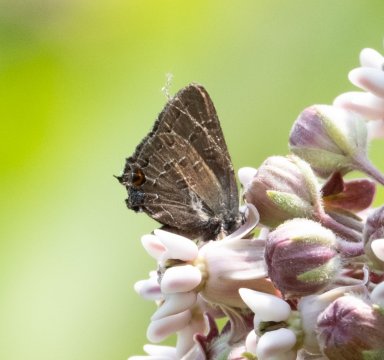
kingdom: Animalia
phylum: Arthropoda
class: Insecta
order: Lepidoptera
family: Lycaenidae
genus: Satyrium
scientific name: Satyrium calanus
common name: Banded Hairstreak
